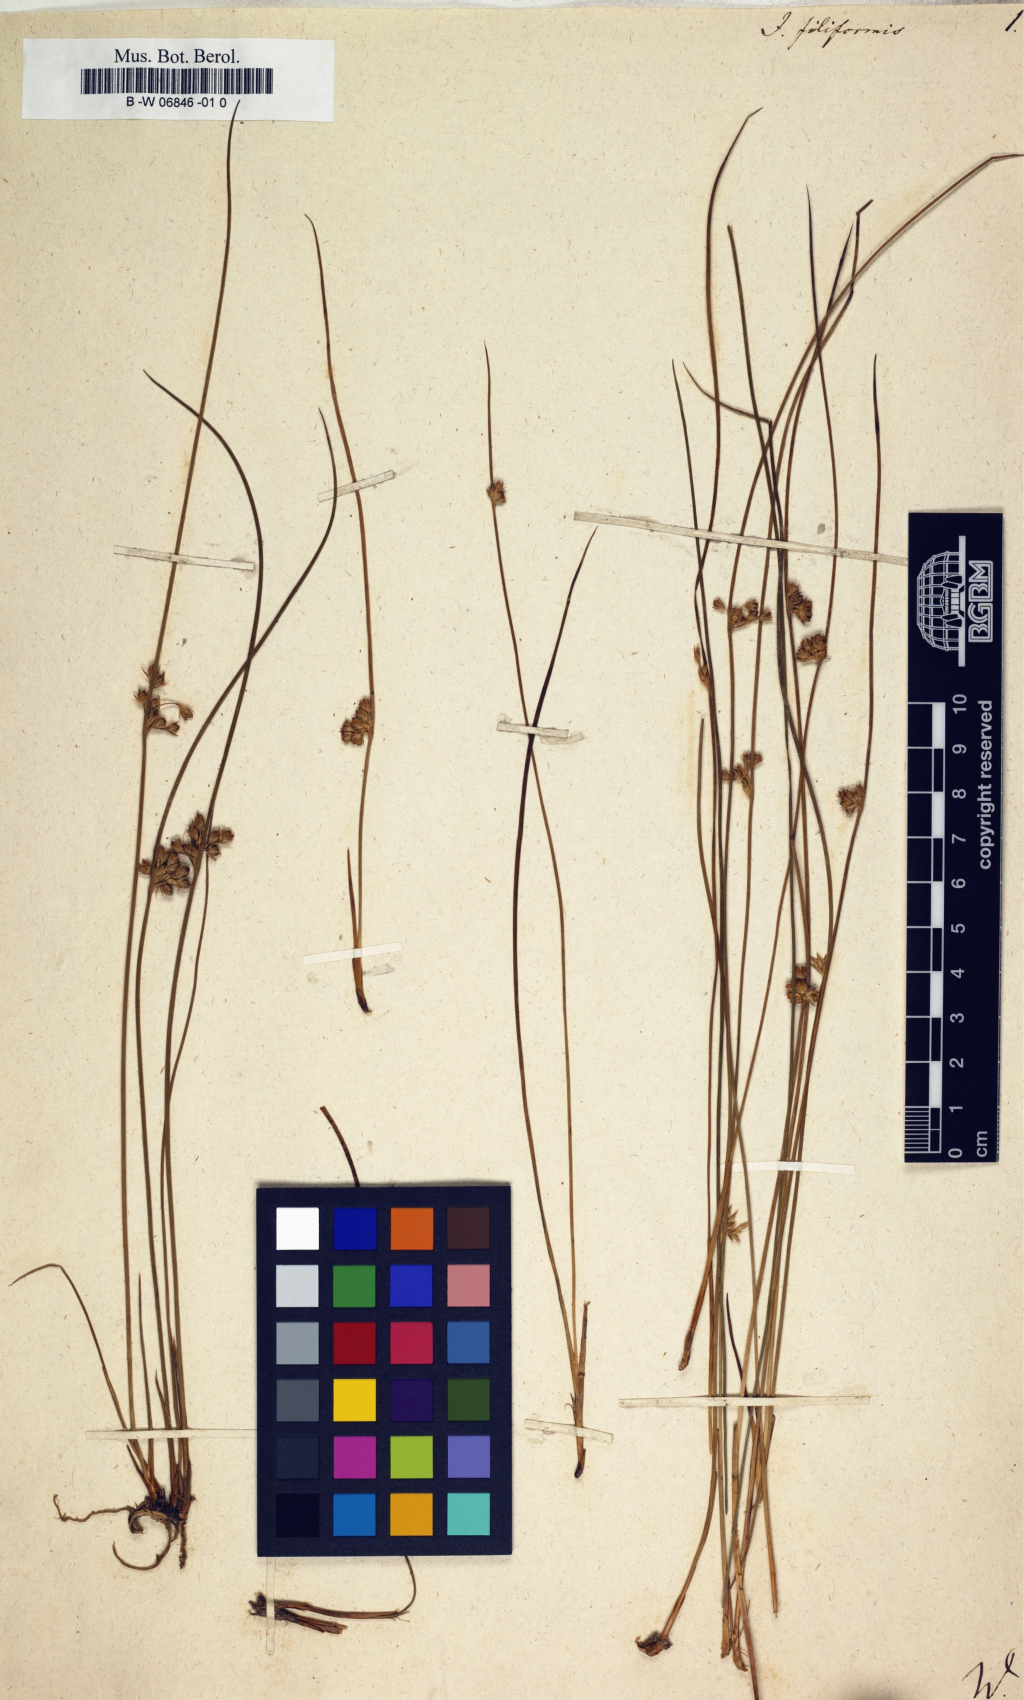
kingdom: Plantae
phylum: Tracheophyta
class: Liliopsida
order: Poales
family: Juncaceae
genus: Juncus
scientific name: Juncus filiformis
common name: Thread rush
